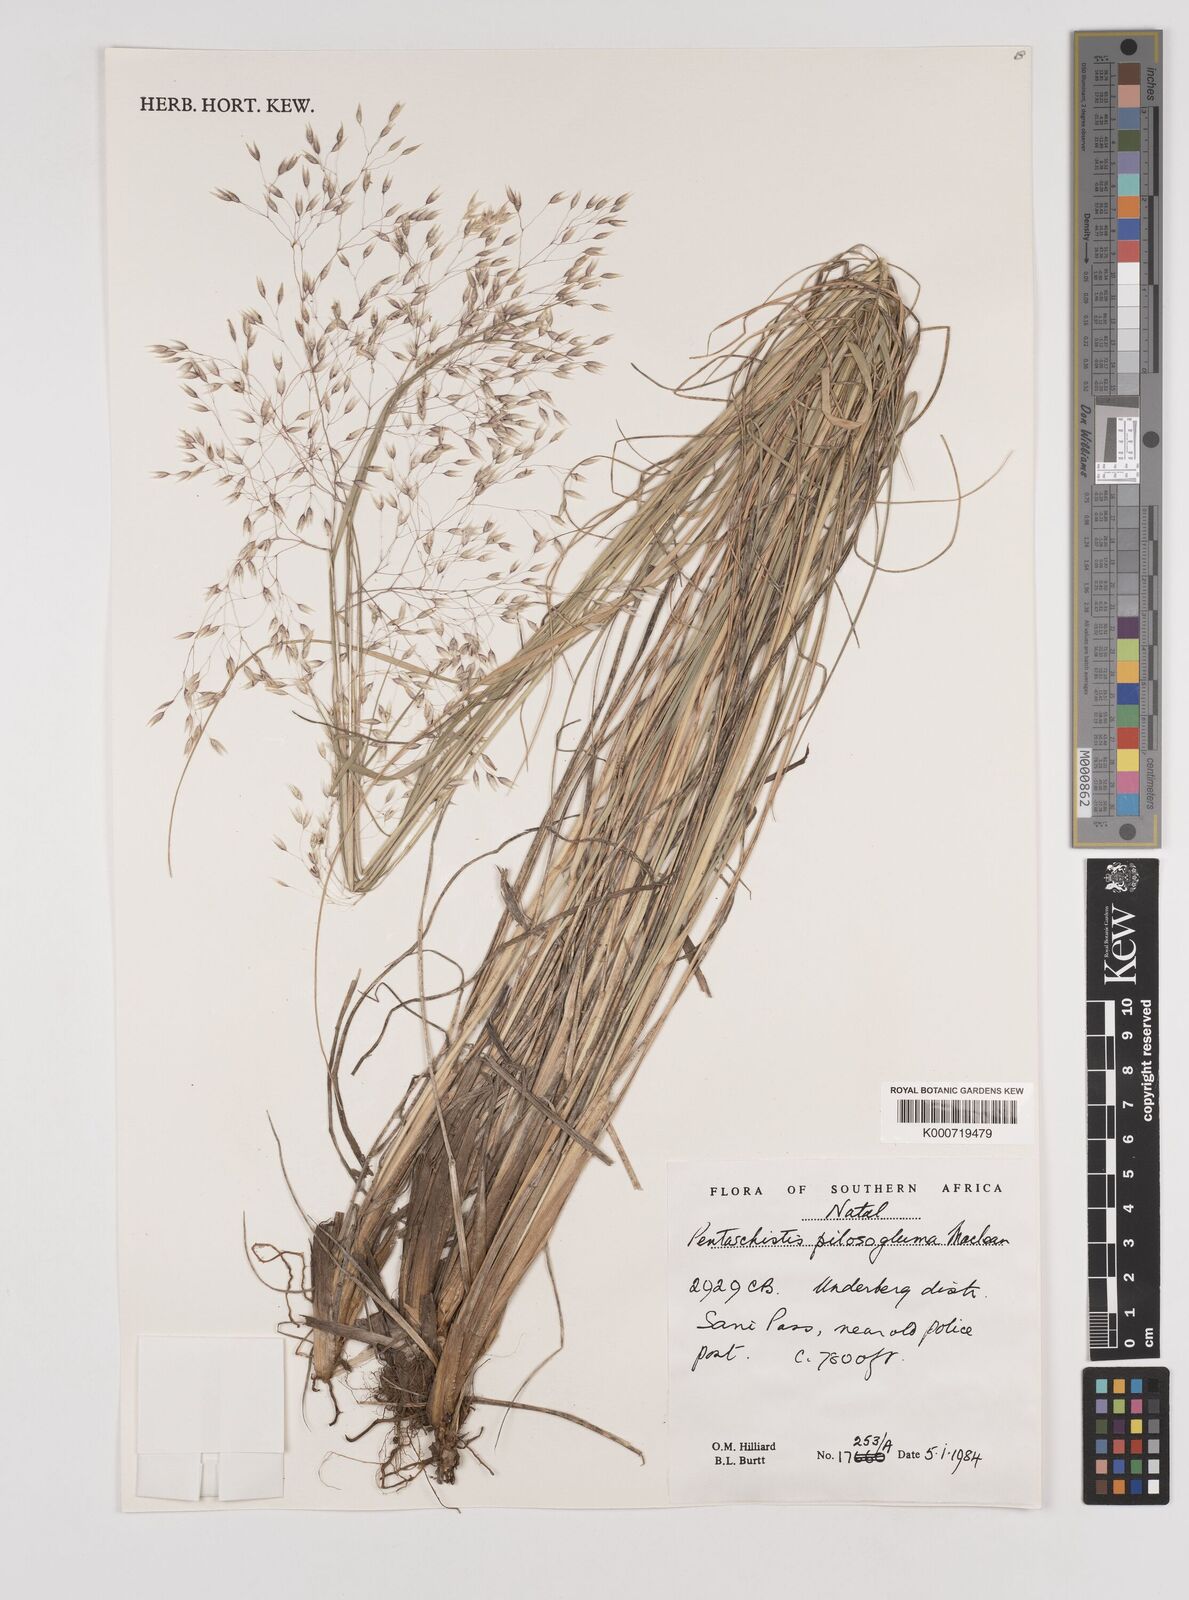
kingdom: Plantae
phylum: Tracheophyta
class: Liliopsida
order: Poales
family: Poaceae
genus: Pentameris
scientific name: Pentameris aurea
